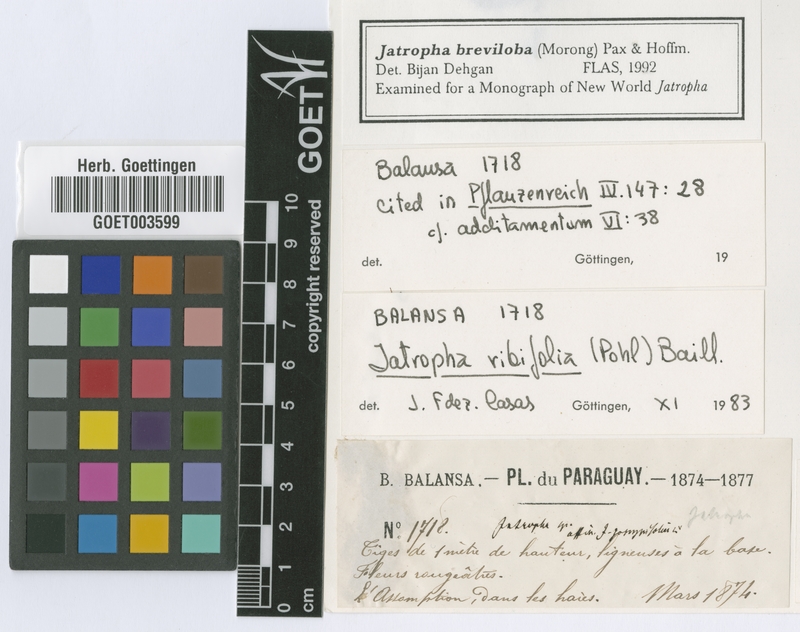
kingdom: Plantae
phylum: Tracheophyta
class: Magnoliopsida
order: Malpighiales
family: Euphorbiaceae
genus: Jatropha
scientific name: Jatropha breviloba
